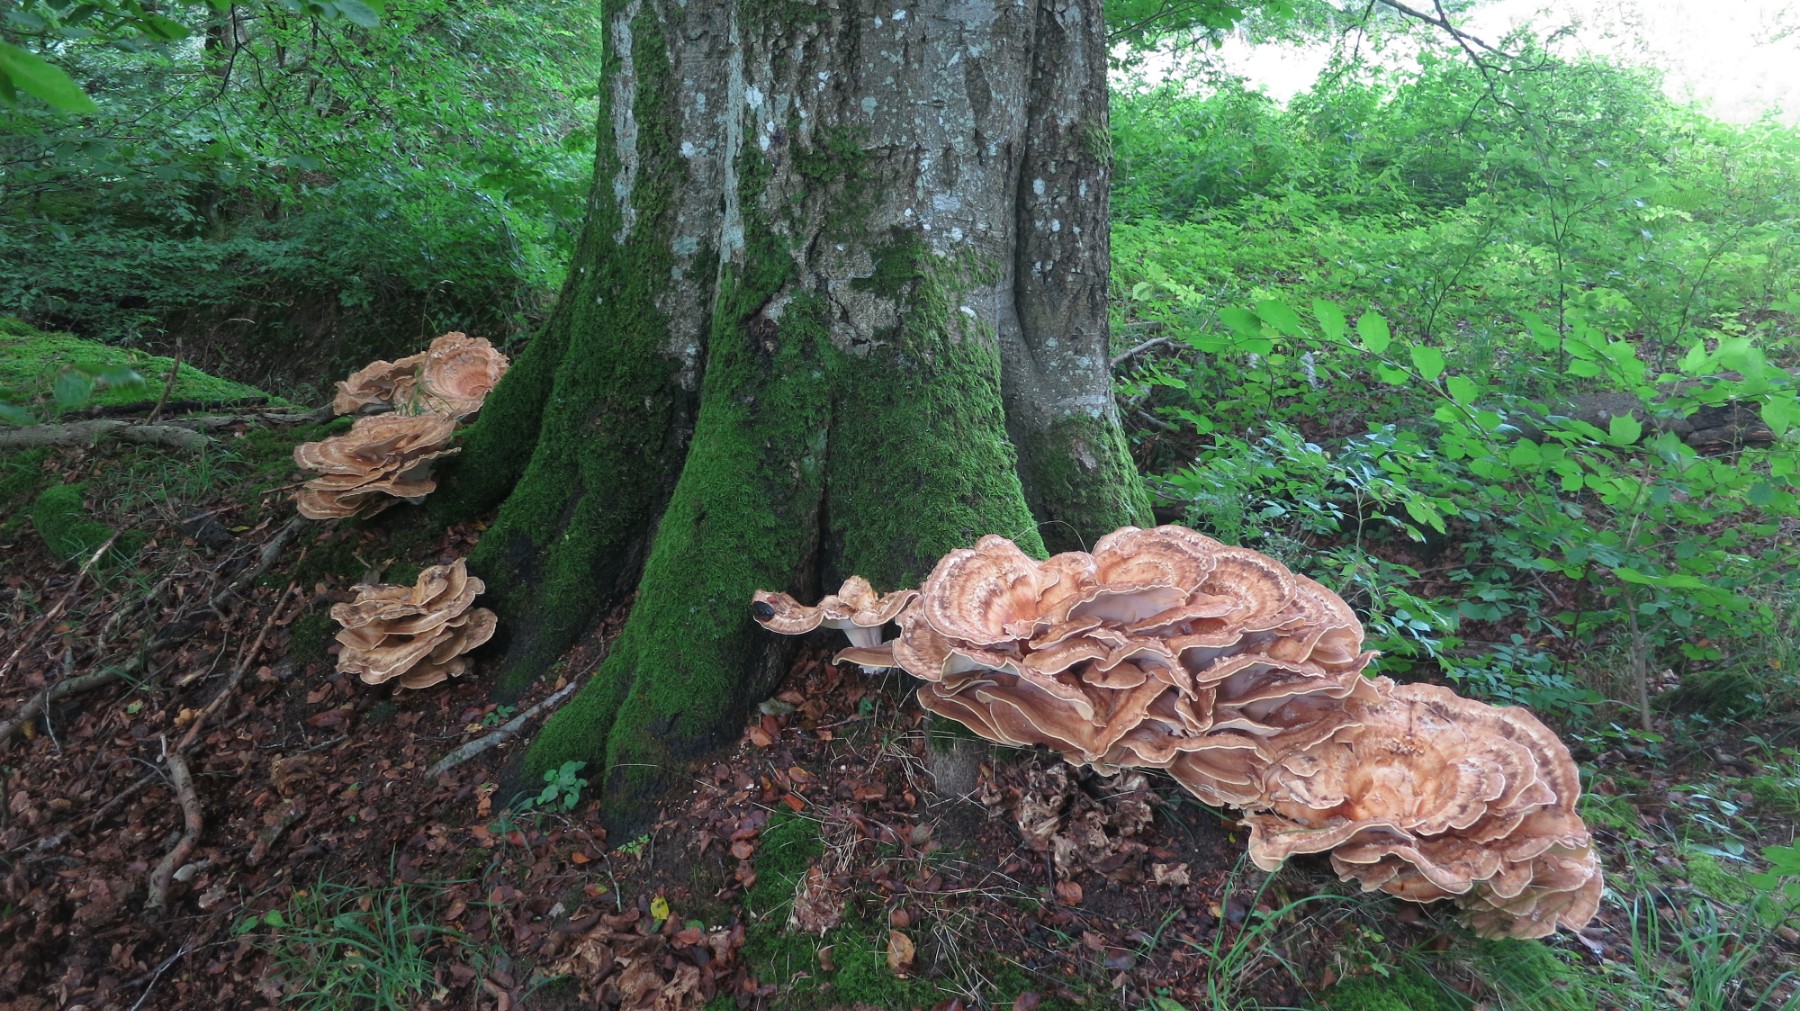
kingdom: Fungi
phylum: Basidiomycota
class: Agaricomycetes
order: Polyporales
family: Meripilaceae
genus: Meripilus
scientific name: Meripilus giganteus
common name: kæmpeporesvamp
